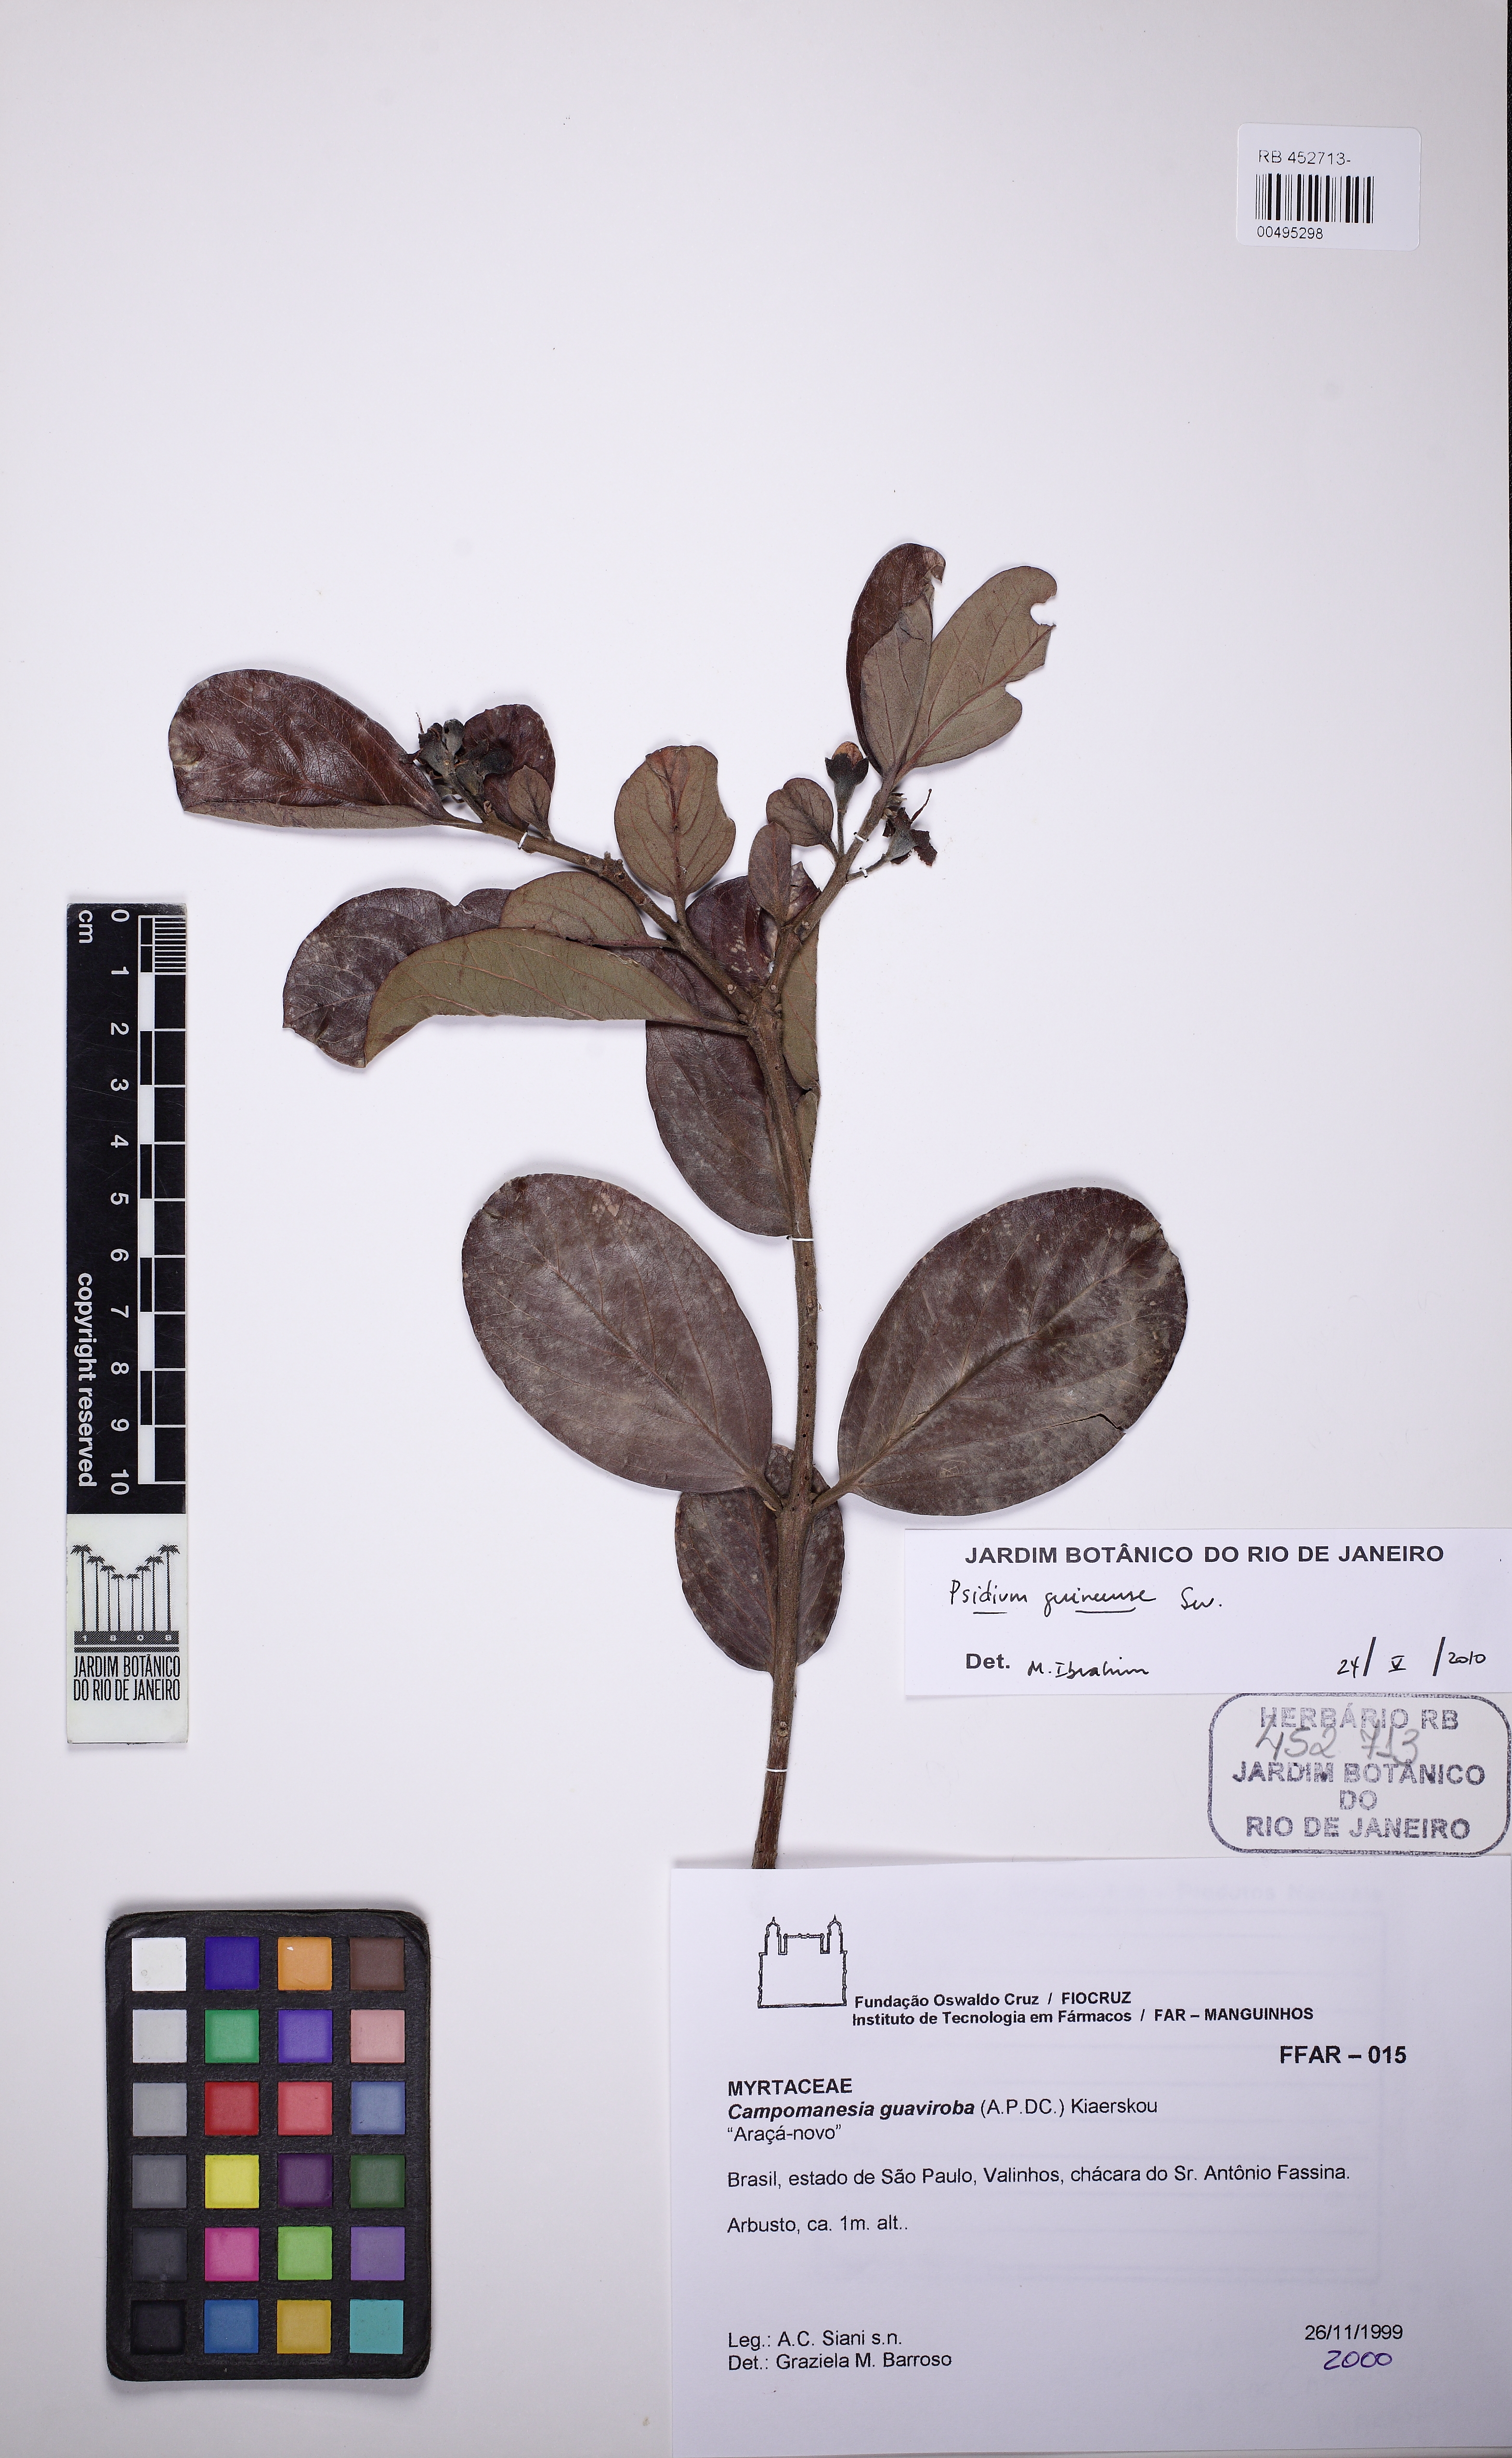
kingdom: Plantae
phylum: Tracheophyta
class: Magnoliopsida
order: Myrtales
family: Myrtaceae
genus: Psidium
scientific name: Psidium guineense
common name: Brazilian guava
